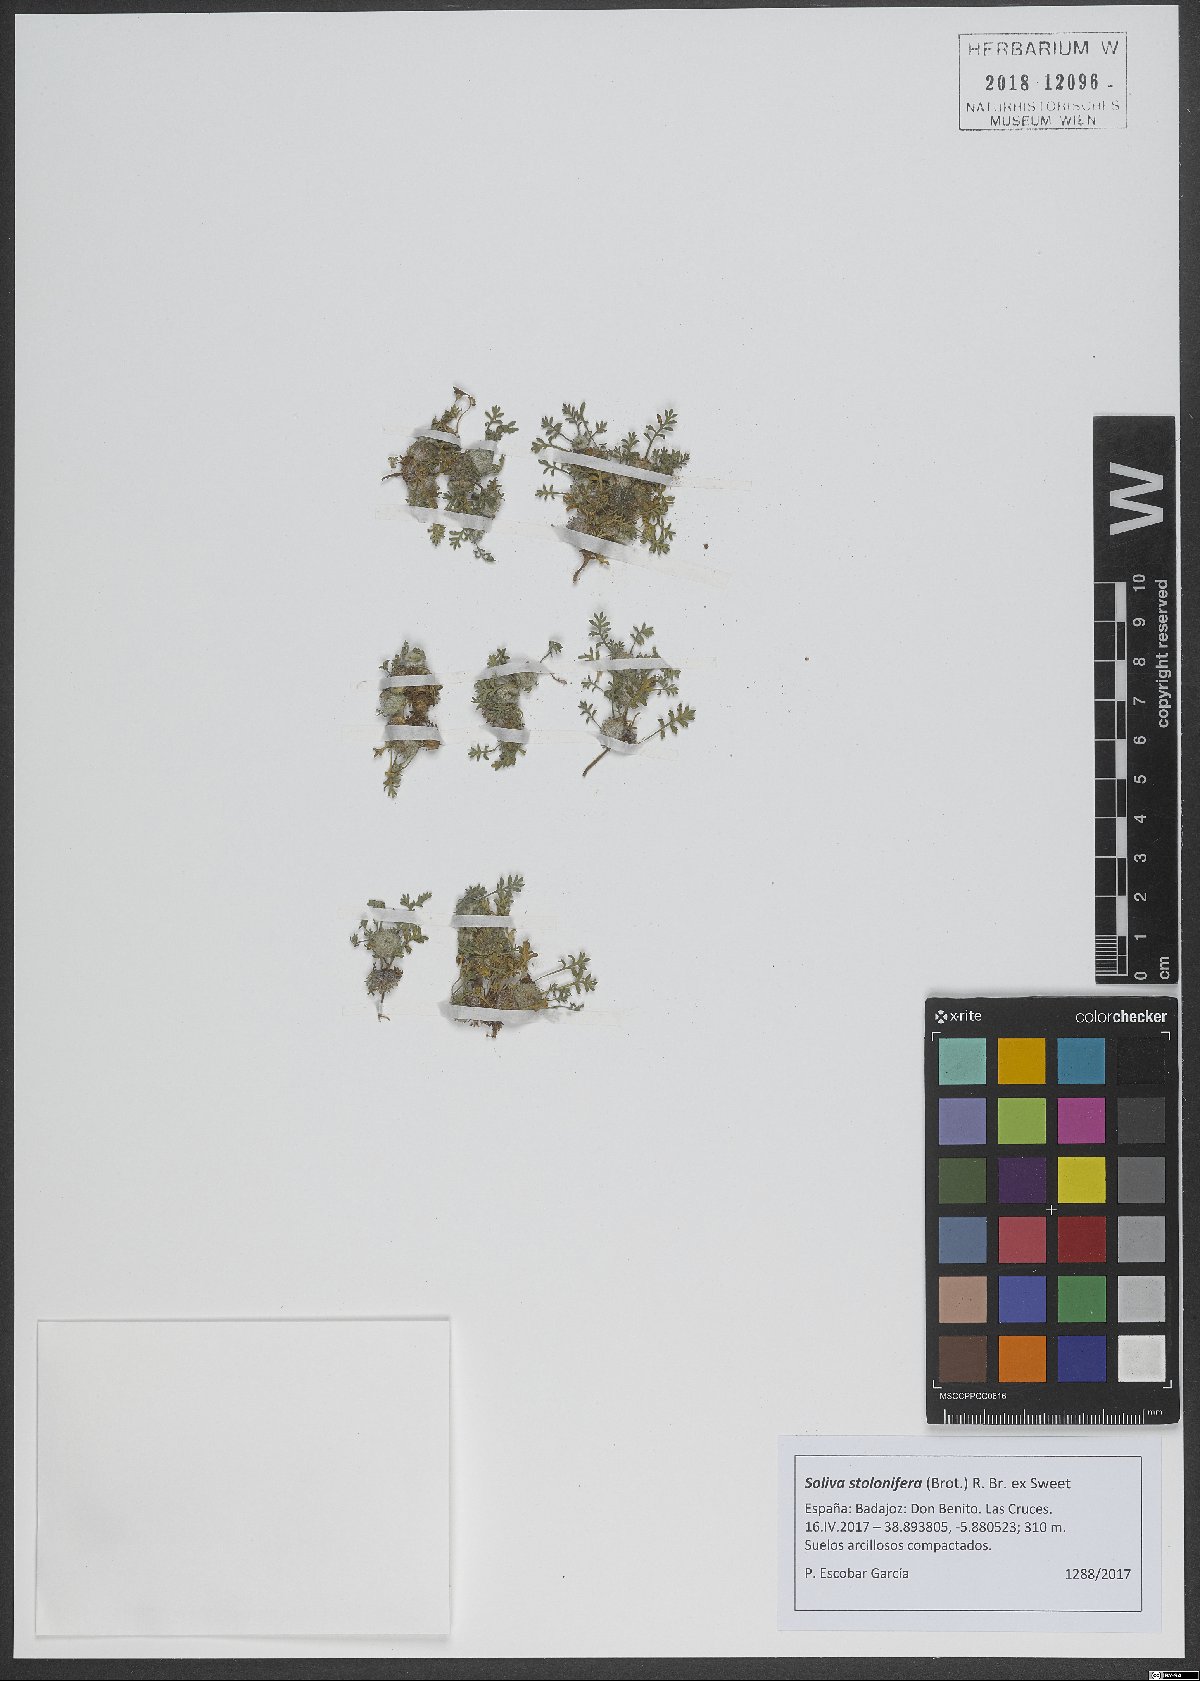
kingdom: Plantae
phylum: Tracheophyta
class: Magnoliopsida
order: Asterales
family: Asteraceae
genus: Soliva
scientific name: Soliva stolonifera
